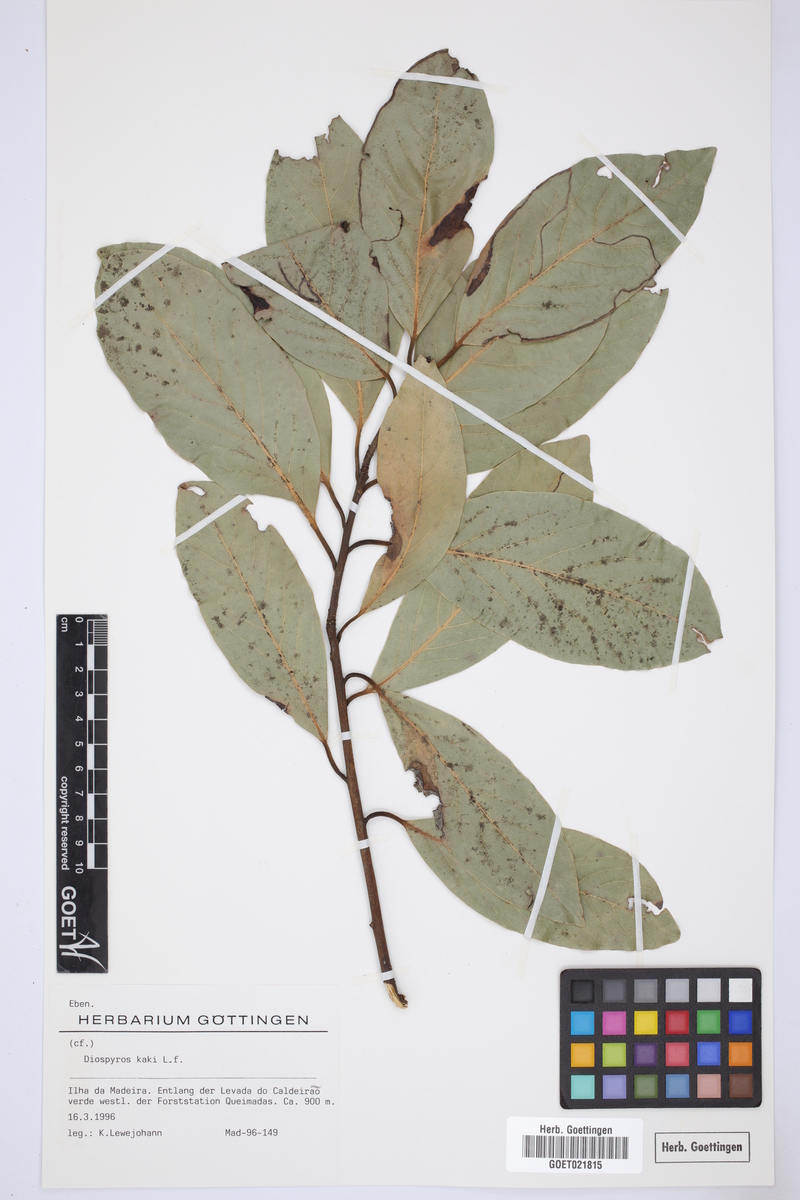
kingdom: Plantae
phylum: Tracheophyta
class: Magnoliopsida
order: Ericales
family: Ebenaceae
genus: Diospyros
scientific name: Diospyros kaki
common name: Persimmon
